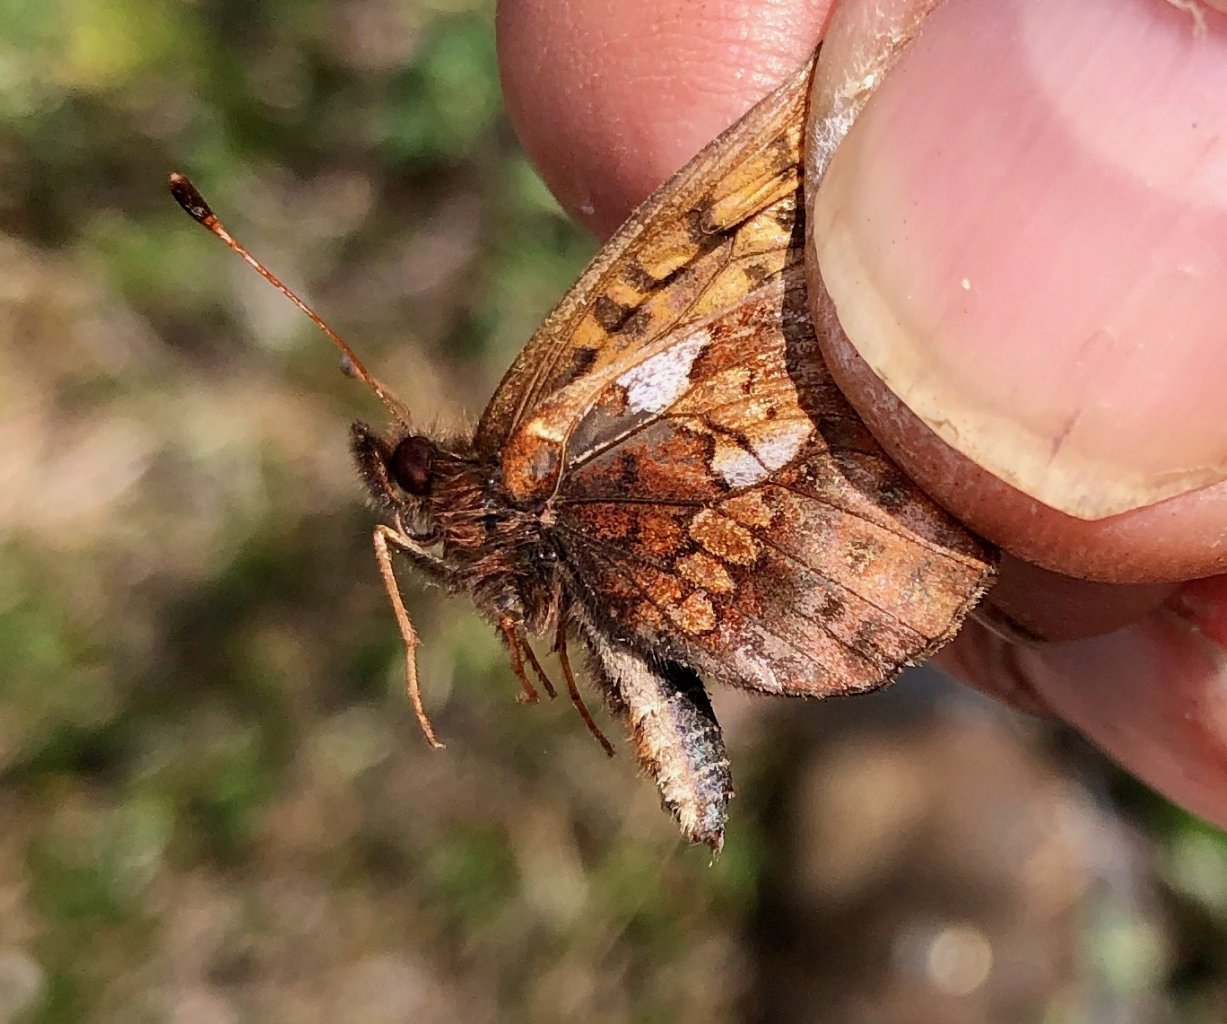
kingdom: Animalia
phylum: Arthropoda
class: Insecta
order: Lepidoptera
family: Nymphalidae
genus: Boloria
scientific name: Boloria frigga
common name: Frigga Fritillary
